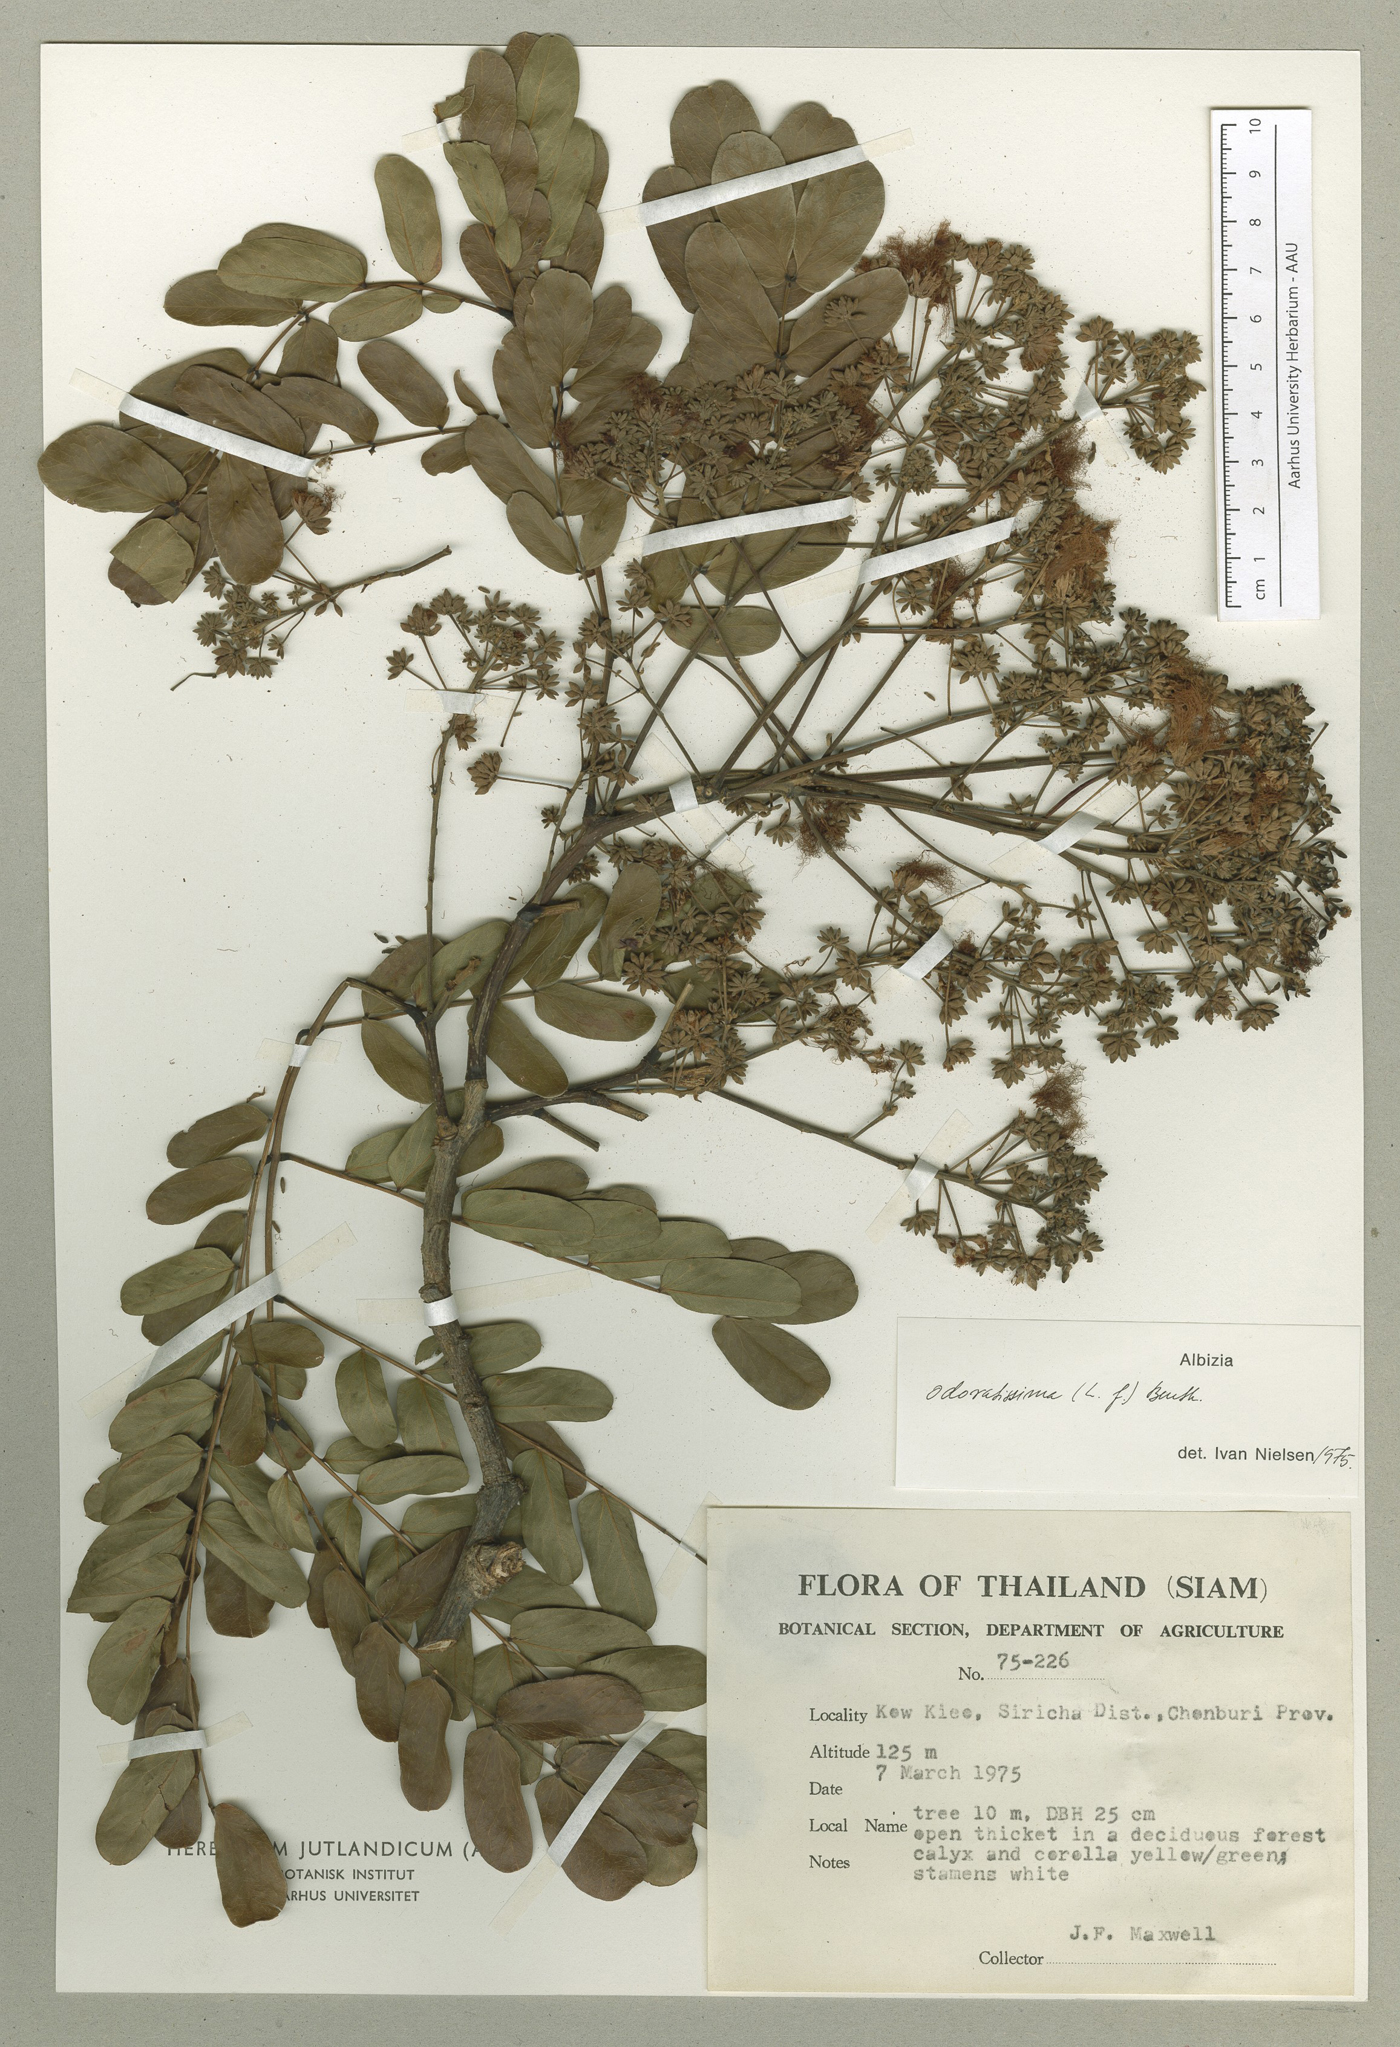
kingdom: Plantae
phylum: Tracheophyta
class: Magnoliopsida
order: Fabales
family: Fabaceae
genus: Albizia
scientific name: Albizia odoratissima
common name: Ceylon rosewood
